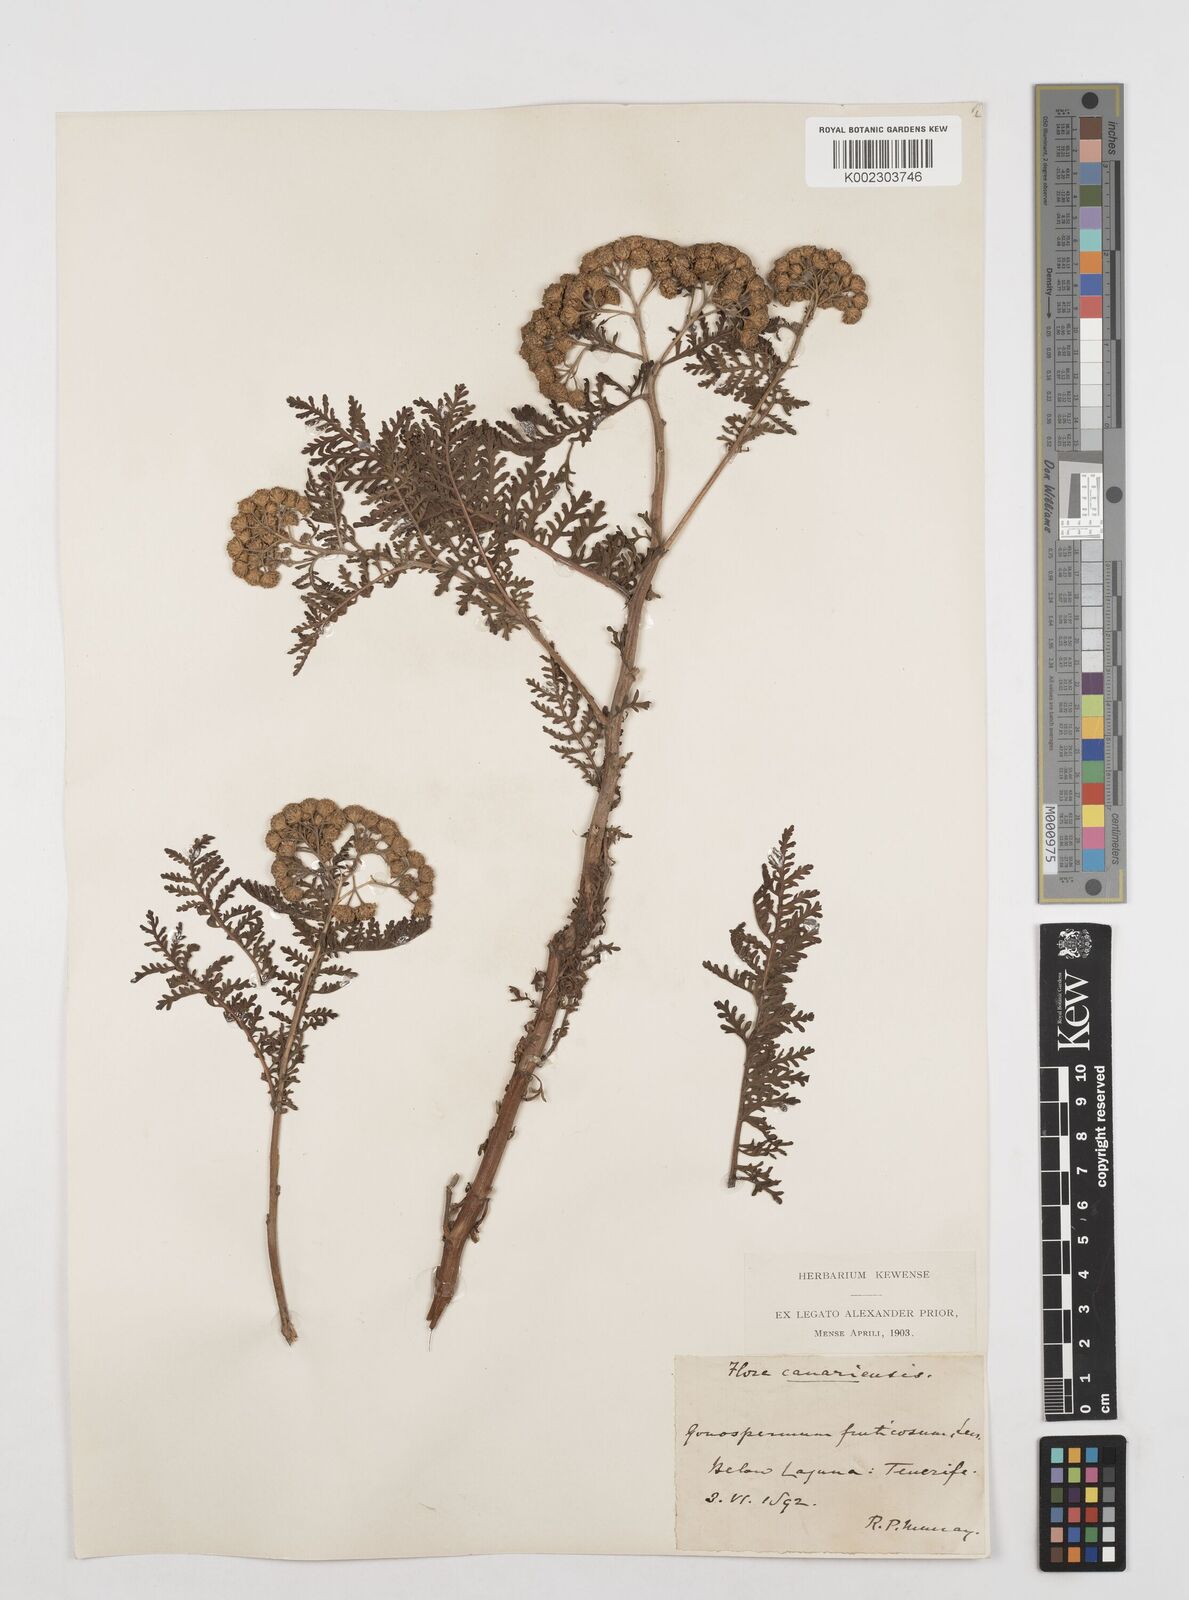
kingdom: Plantae
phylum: Tracheophyta
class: Magnoliopsida
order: Asterales
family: Asteraceae
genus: Gonospermum
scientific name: Gonospermum fruticosum
